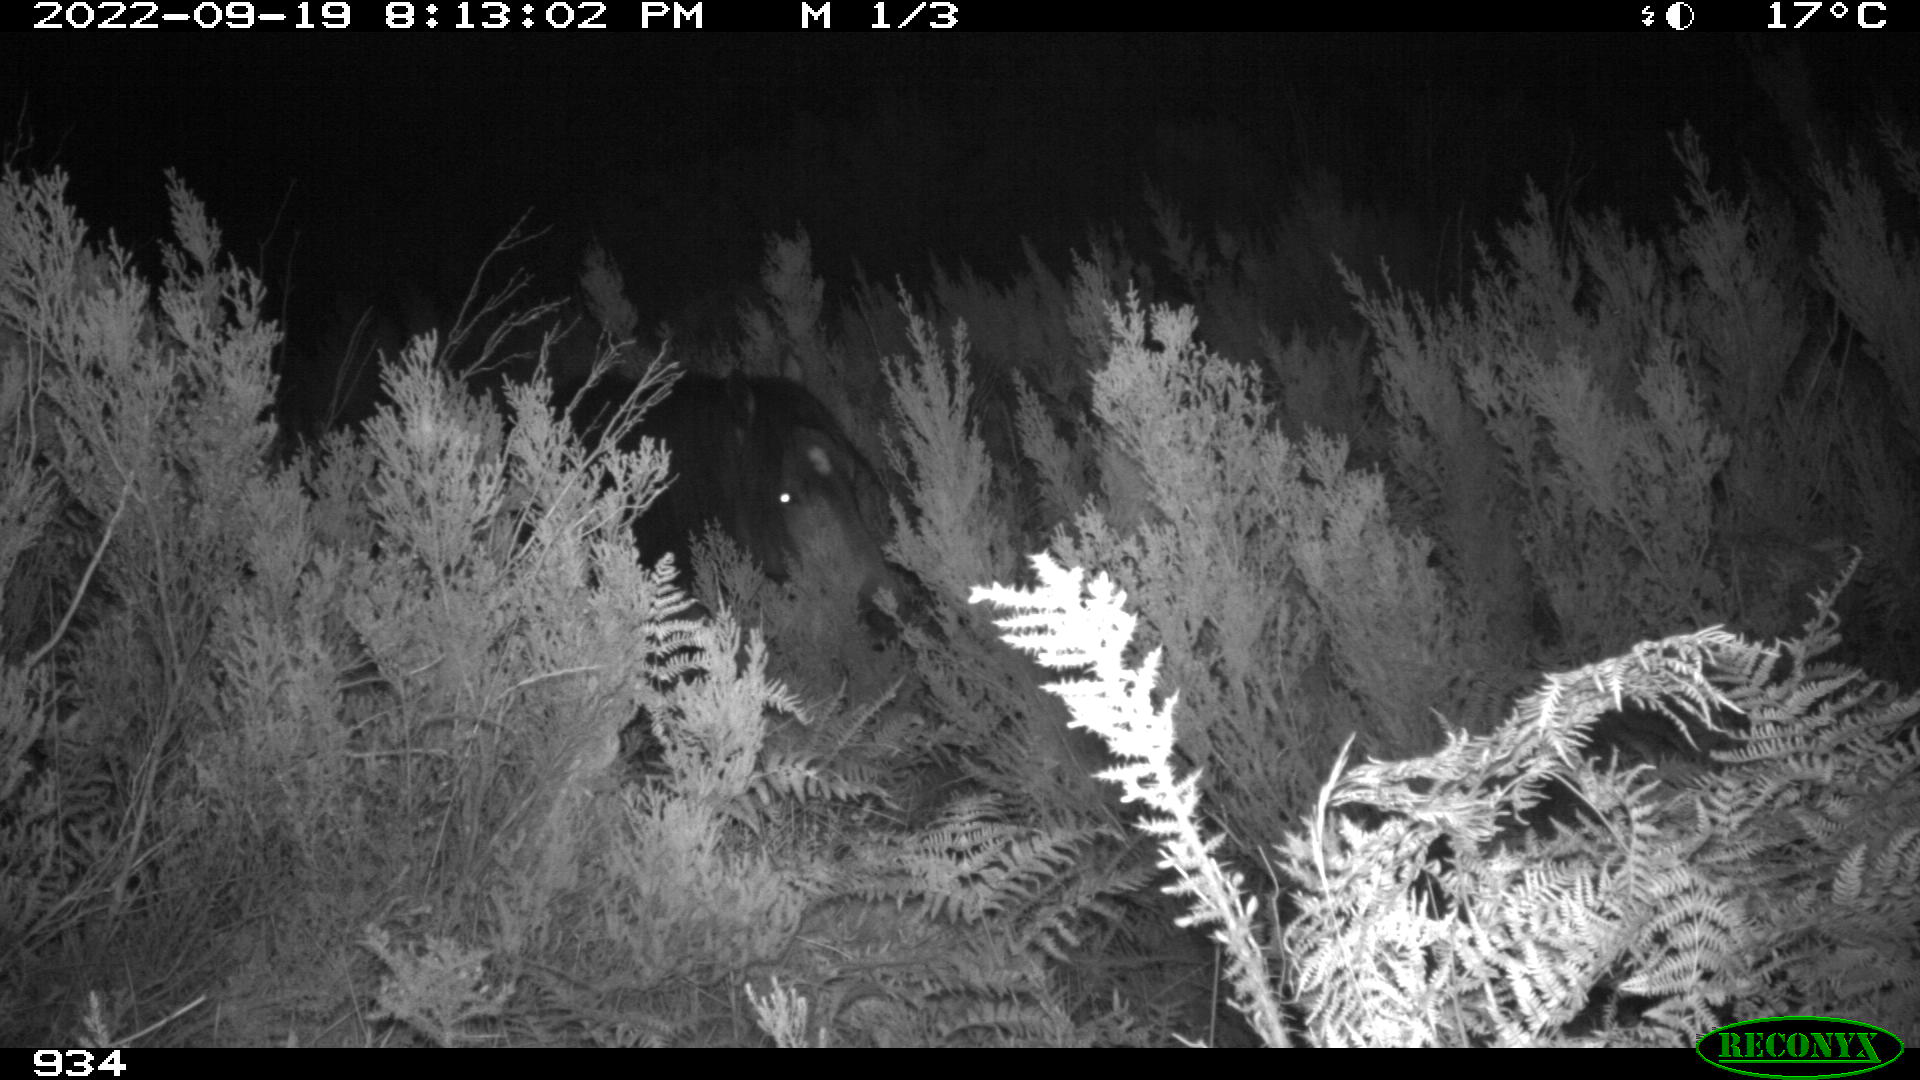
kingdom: Animalia
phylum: Chordata
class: Mammalia
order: Perissodactyla
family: Equidae
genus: Equus
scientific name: Equus caballus
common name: Horse
